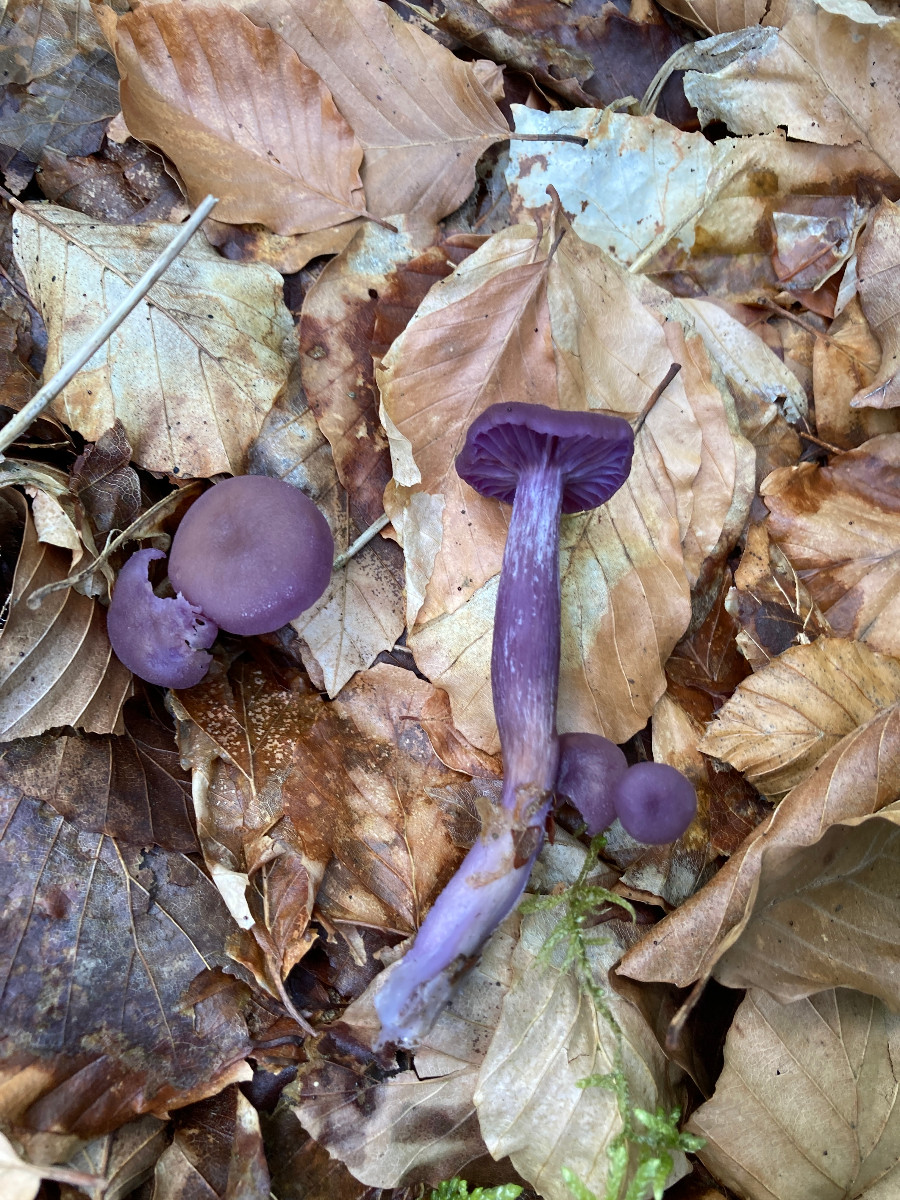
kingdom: Fungi
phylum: Basidiomycota
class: Agaricomycetes
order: Agaricales
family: Hydnangiaceae
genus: Laccaria
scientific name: Laccaria amethystina
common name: violet ametysthat
